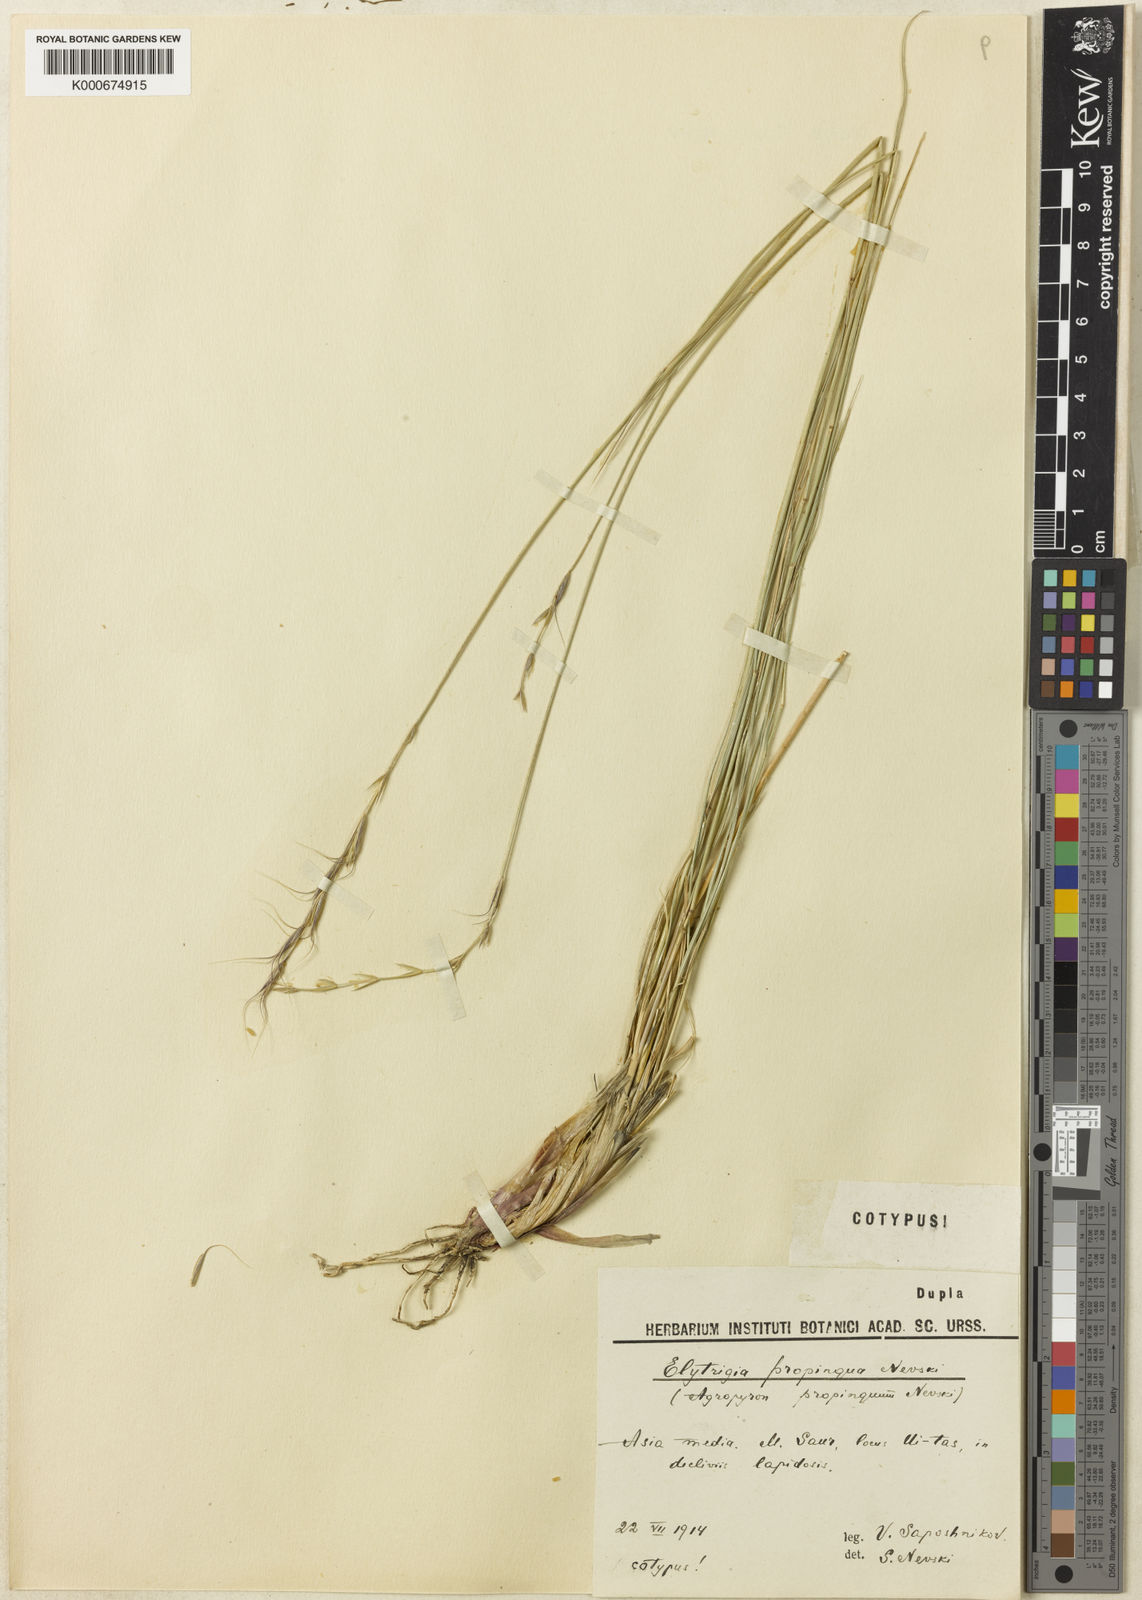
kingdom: Plantae
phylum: Tracheophyta
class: Liliopsida
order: Poales
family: Poaceae
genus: Leymus
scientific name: Leymus salina
